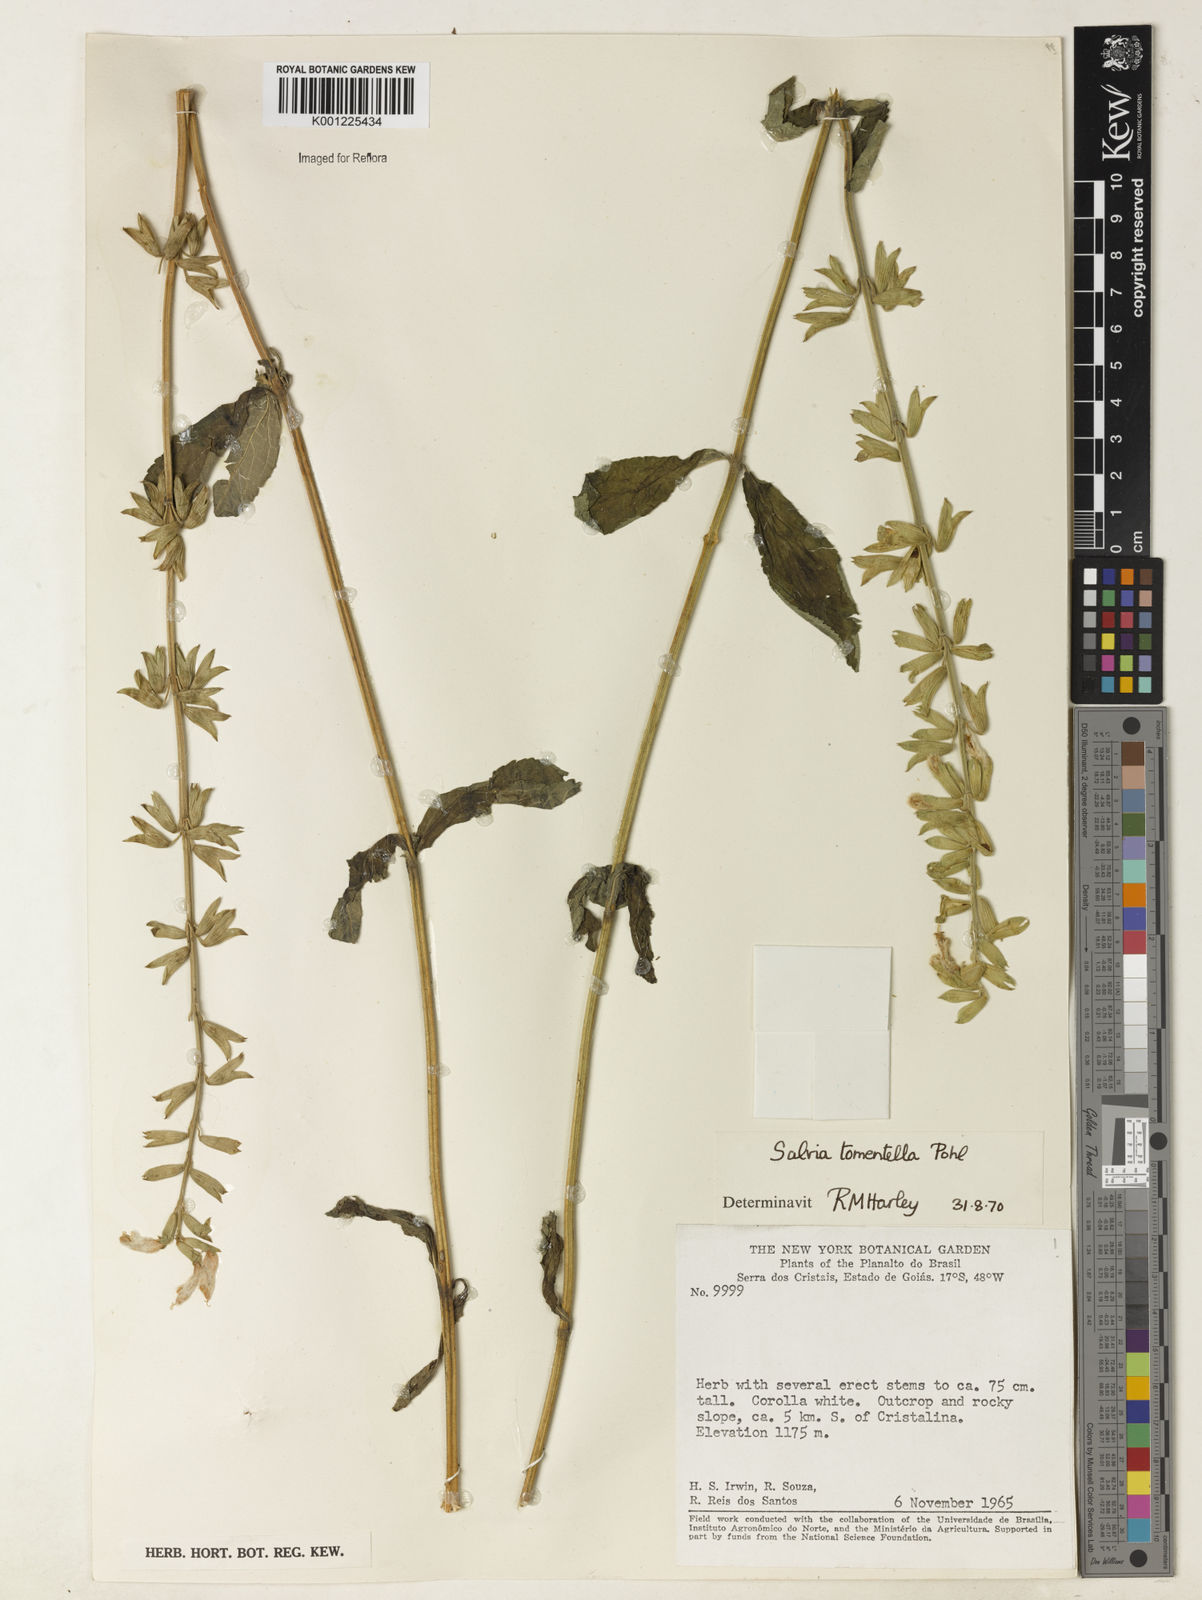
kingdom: Plantae
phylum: Tracheophyta
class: Magnoliopsida
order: Lamiales
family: Lamiaceae
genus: Salvia
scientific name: Salvia tomentella
